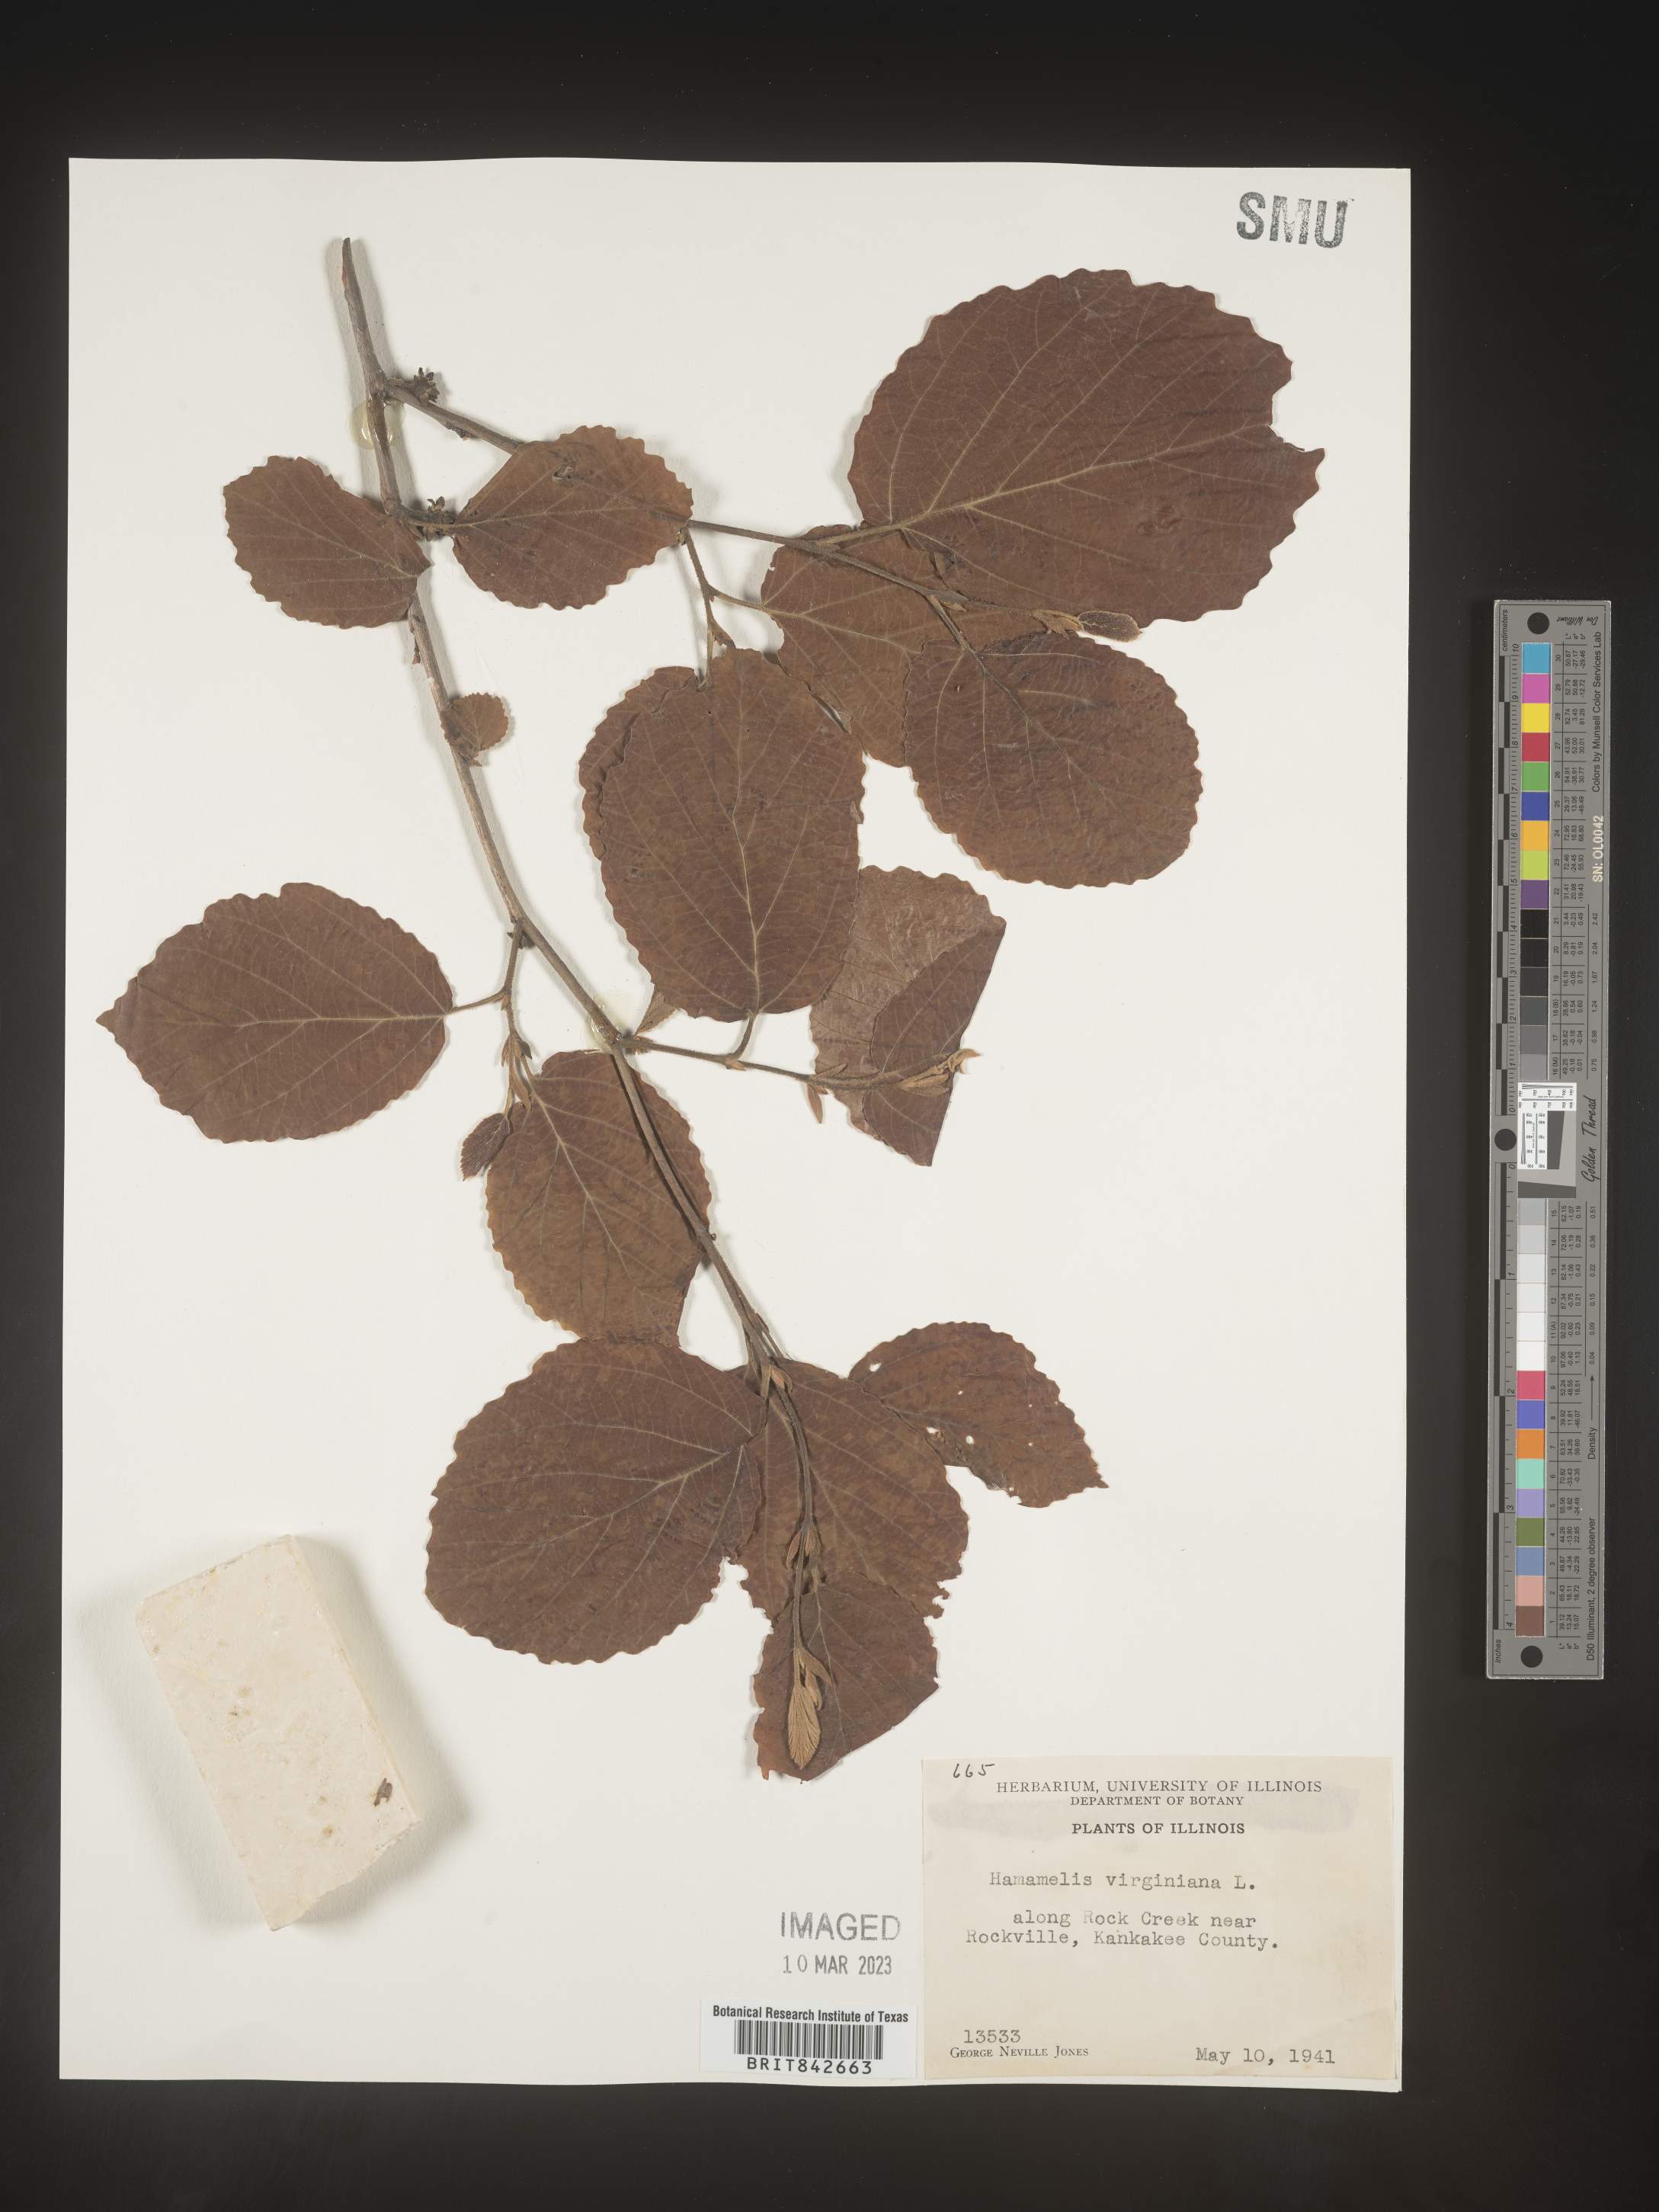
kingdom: Plantae
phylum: Tracheophyta
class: Magnoliopsida
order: Saxifragales
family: Hamamelidaceae
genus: Hamamelis
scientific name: Hamamelis virginiana
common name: Witch-hazel
